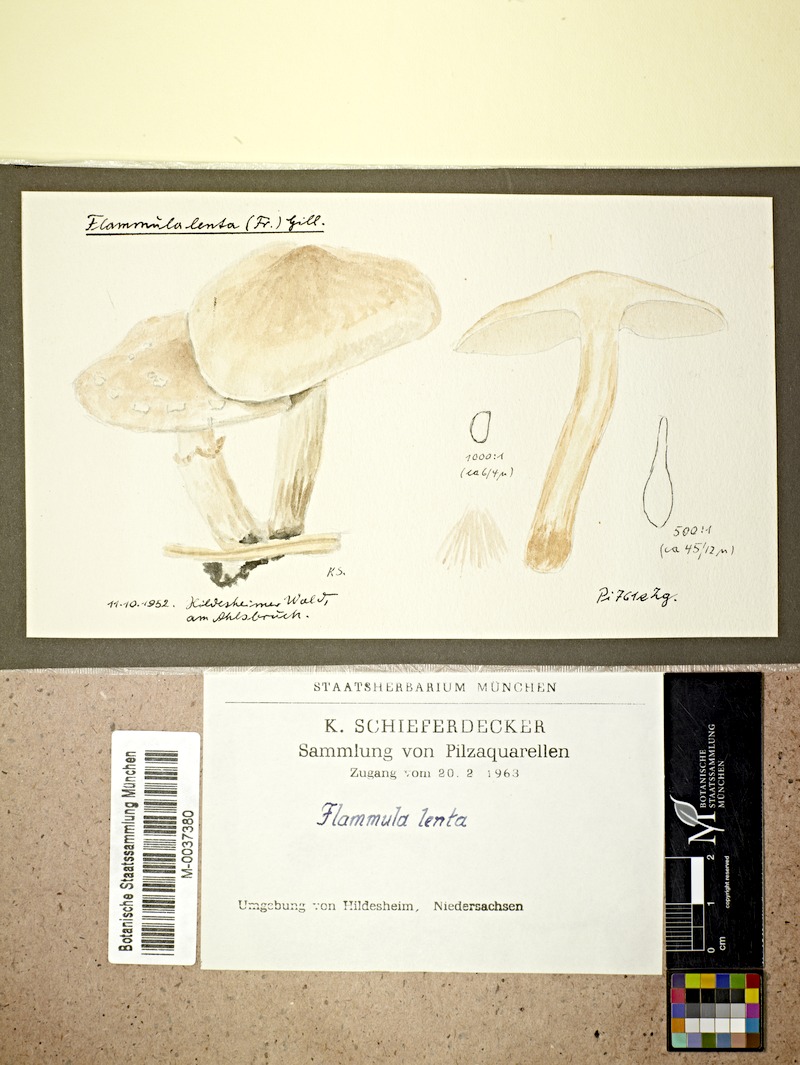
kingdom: Fungi
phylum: Basidiomycota
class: Agaricomycetes
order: Agaricales
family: Strophariaceae
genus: Pholiota
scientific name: Pholiota lenta
